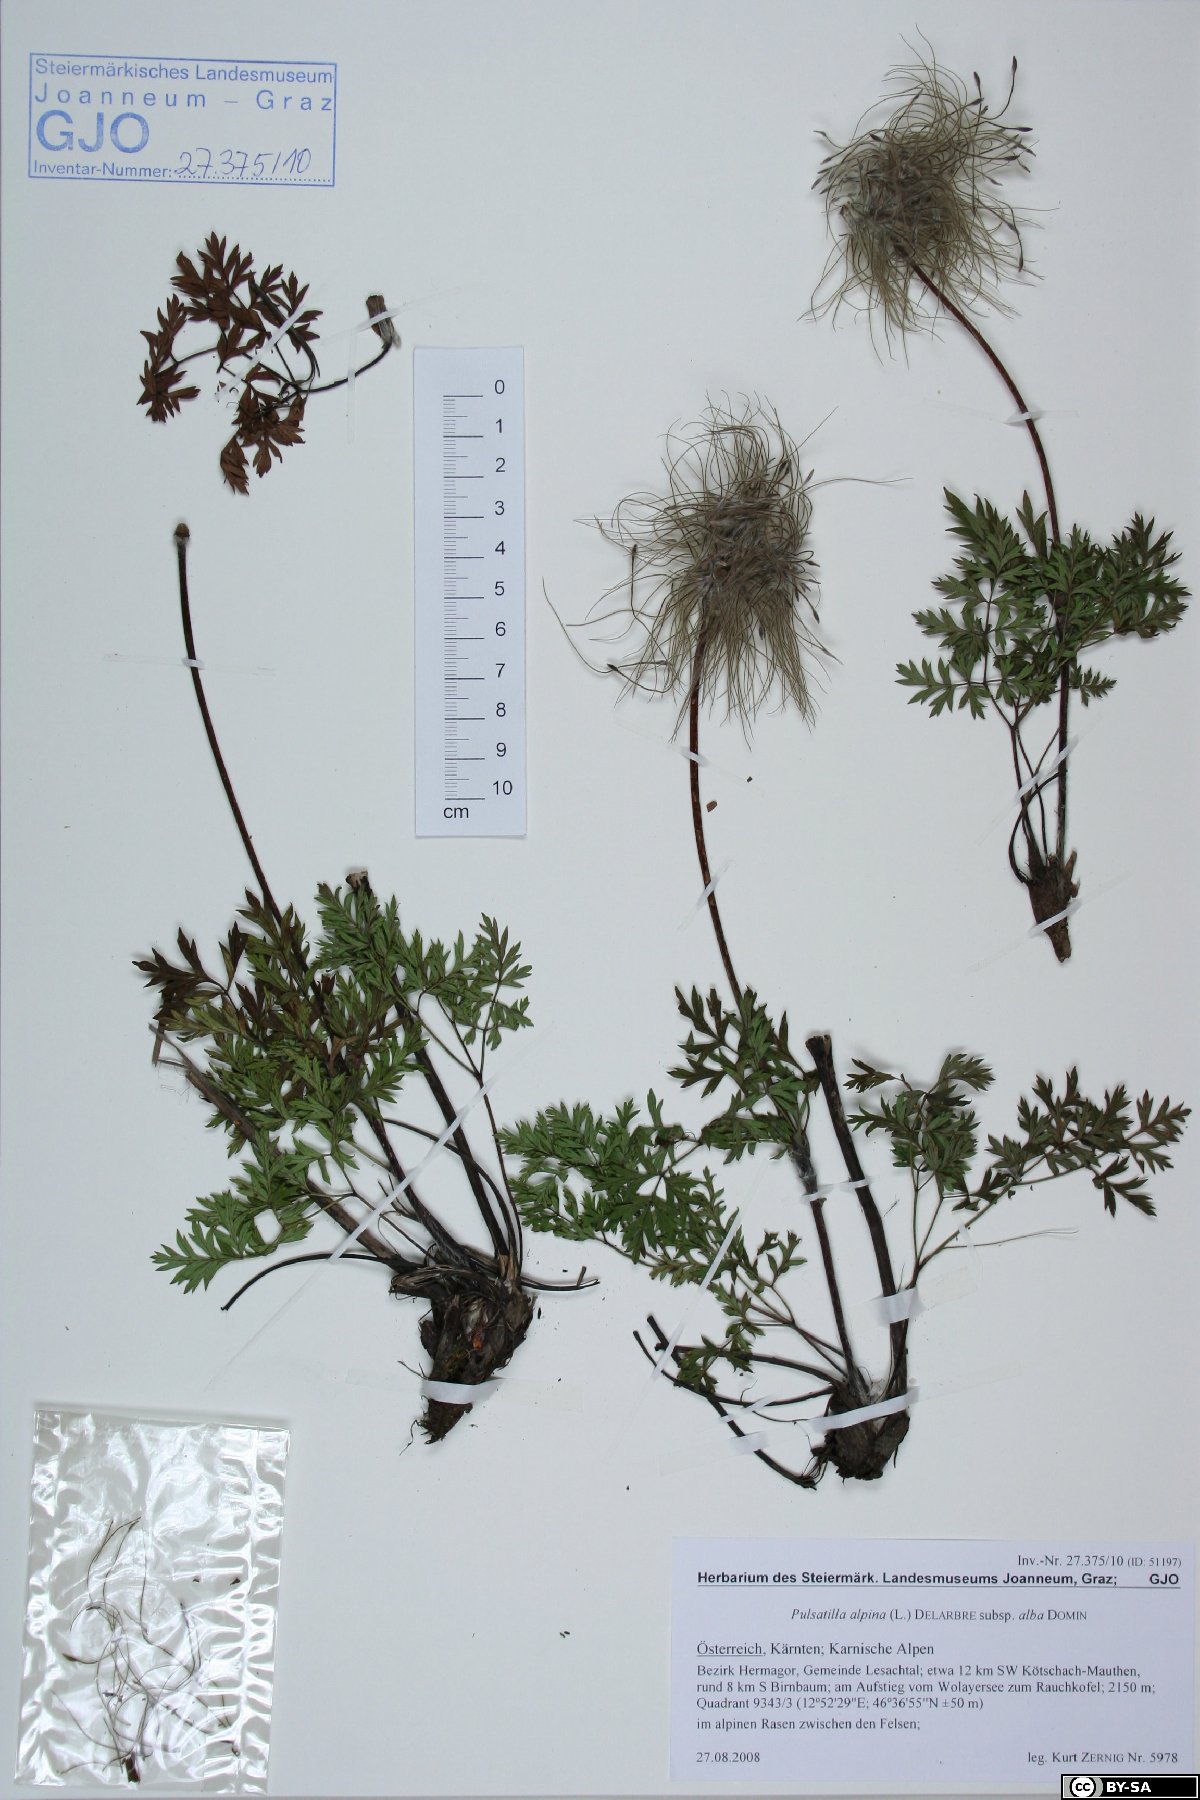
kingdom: Plantae
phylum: Tracheophyta
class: Magnoliopsida
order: Ranunculales
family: Ranunculaceae
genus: Pulsatilla
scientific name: Pulsatilla alpina
